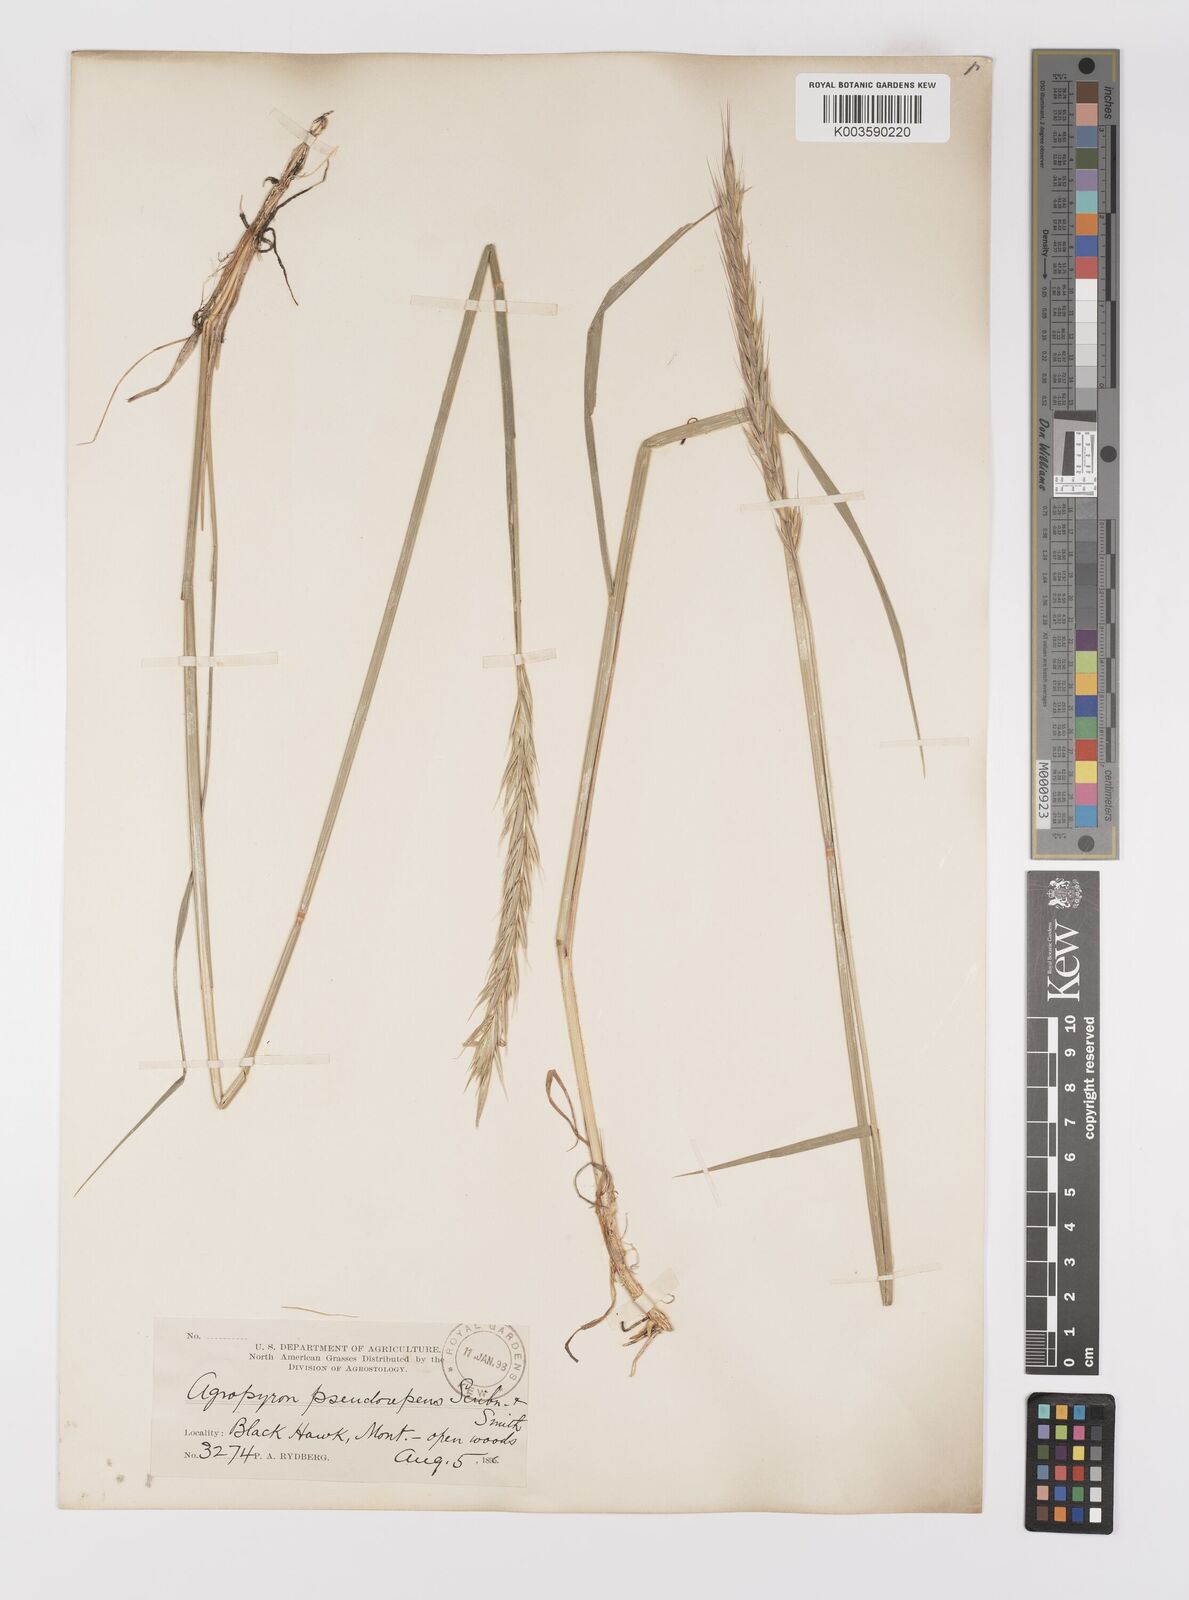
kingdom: Plantae
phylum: Tracheophyta
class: Liliopsida
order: Poales
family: Poaceae
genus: Elymus
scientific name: Elymus violaceus
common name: Arctic wheatgrass
